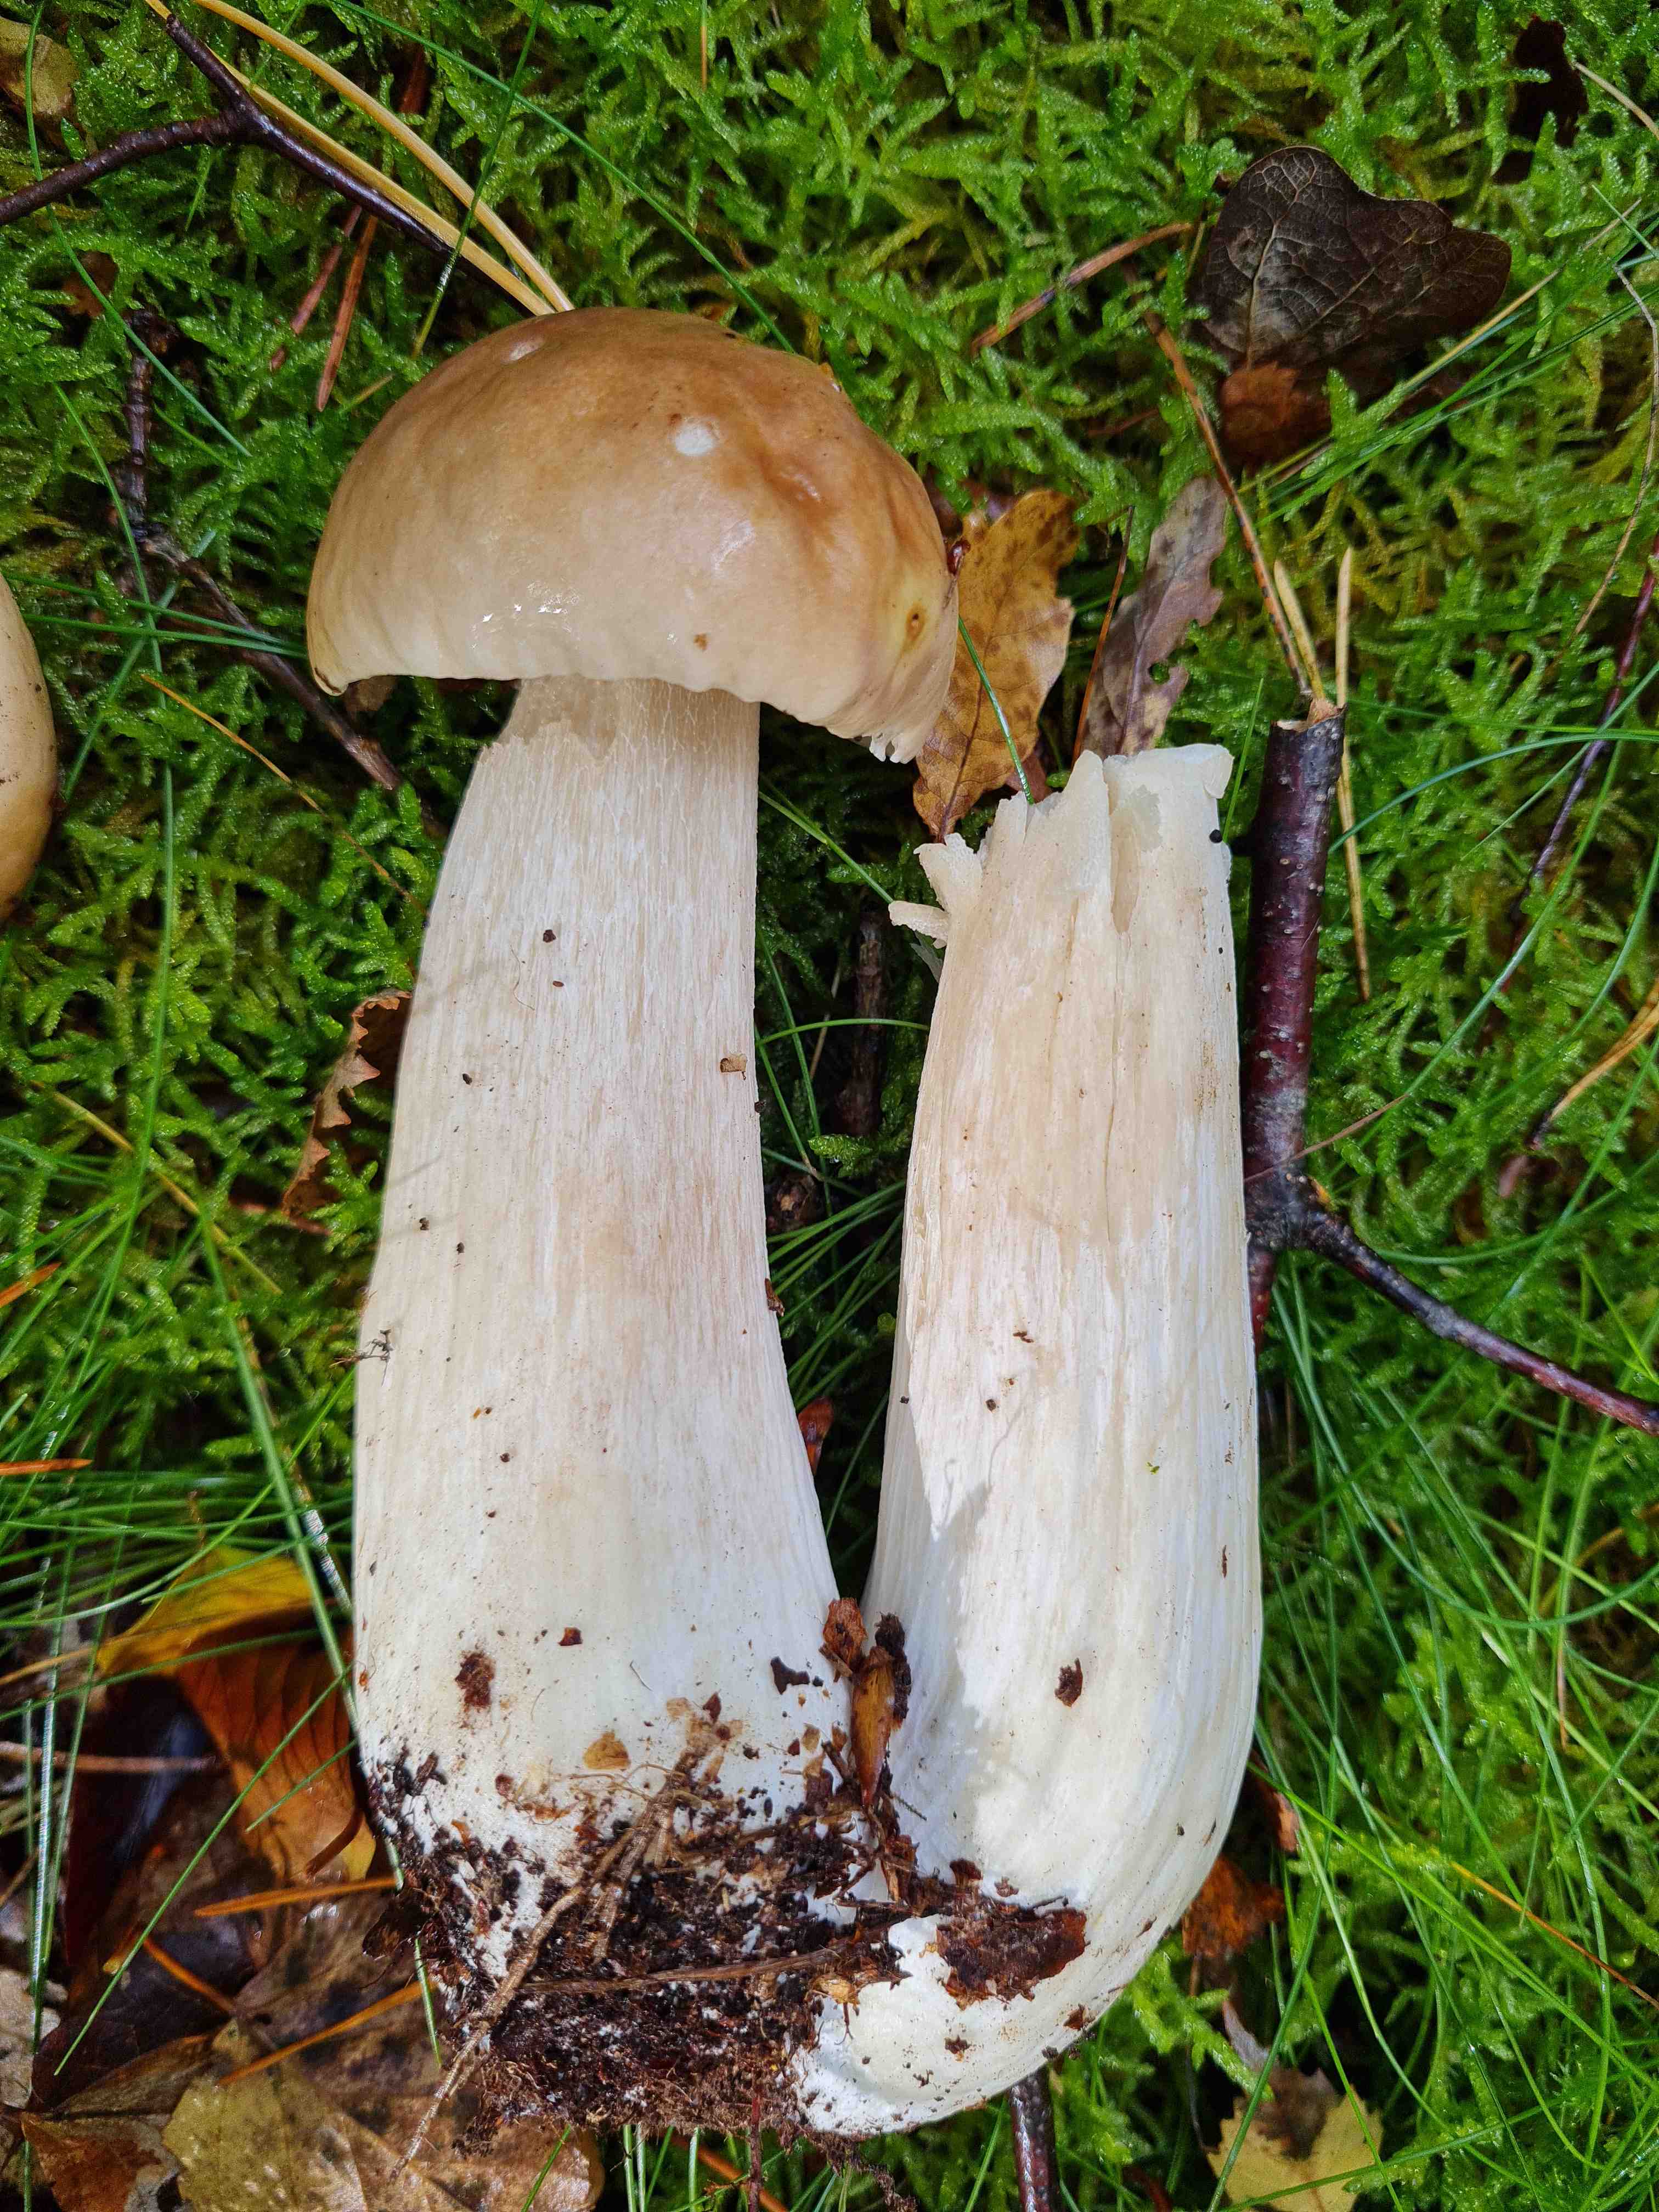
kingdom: Fungi
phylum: Basidiomycota
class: Agaricomycetes
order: Boletales
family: Boletaceae
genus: Boletus
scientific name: Boletus edulis
